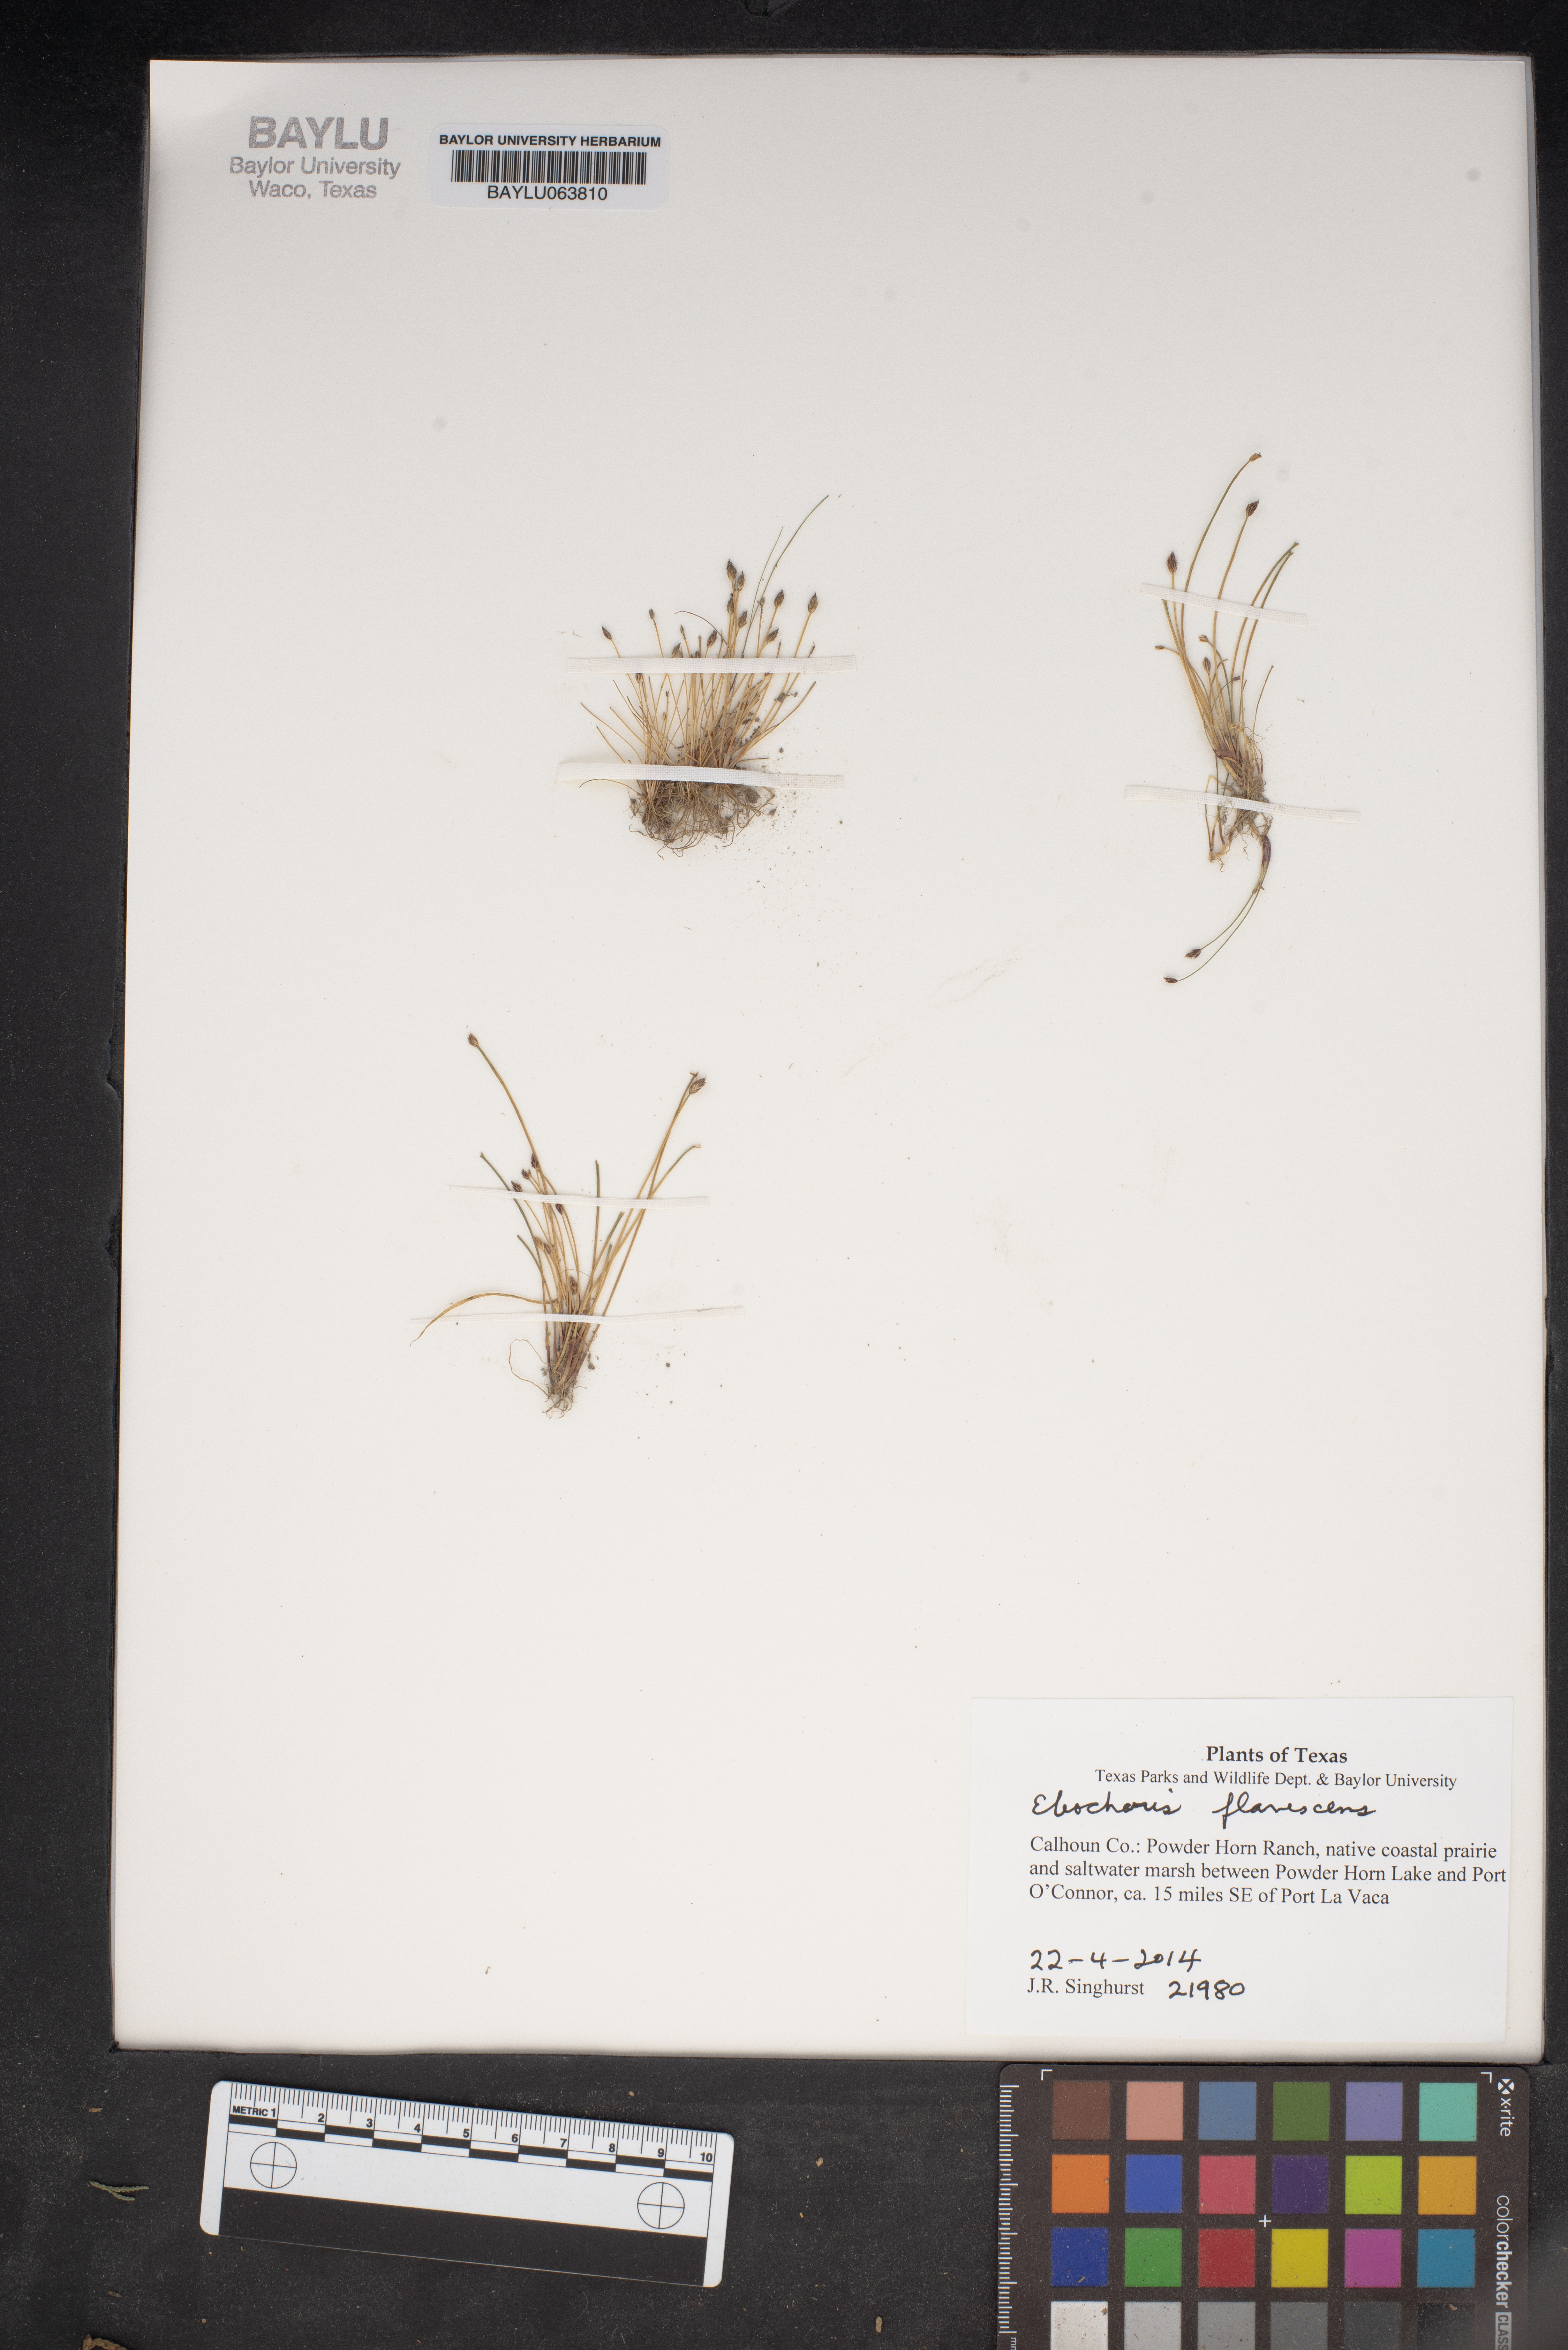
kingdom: Plantae
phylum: Tracheophyta
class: Liliopsida
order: Poales
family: Cyperaceae
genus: Eleocharis
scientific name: Eleocharis flavescens
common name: Yellow spikerush
